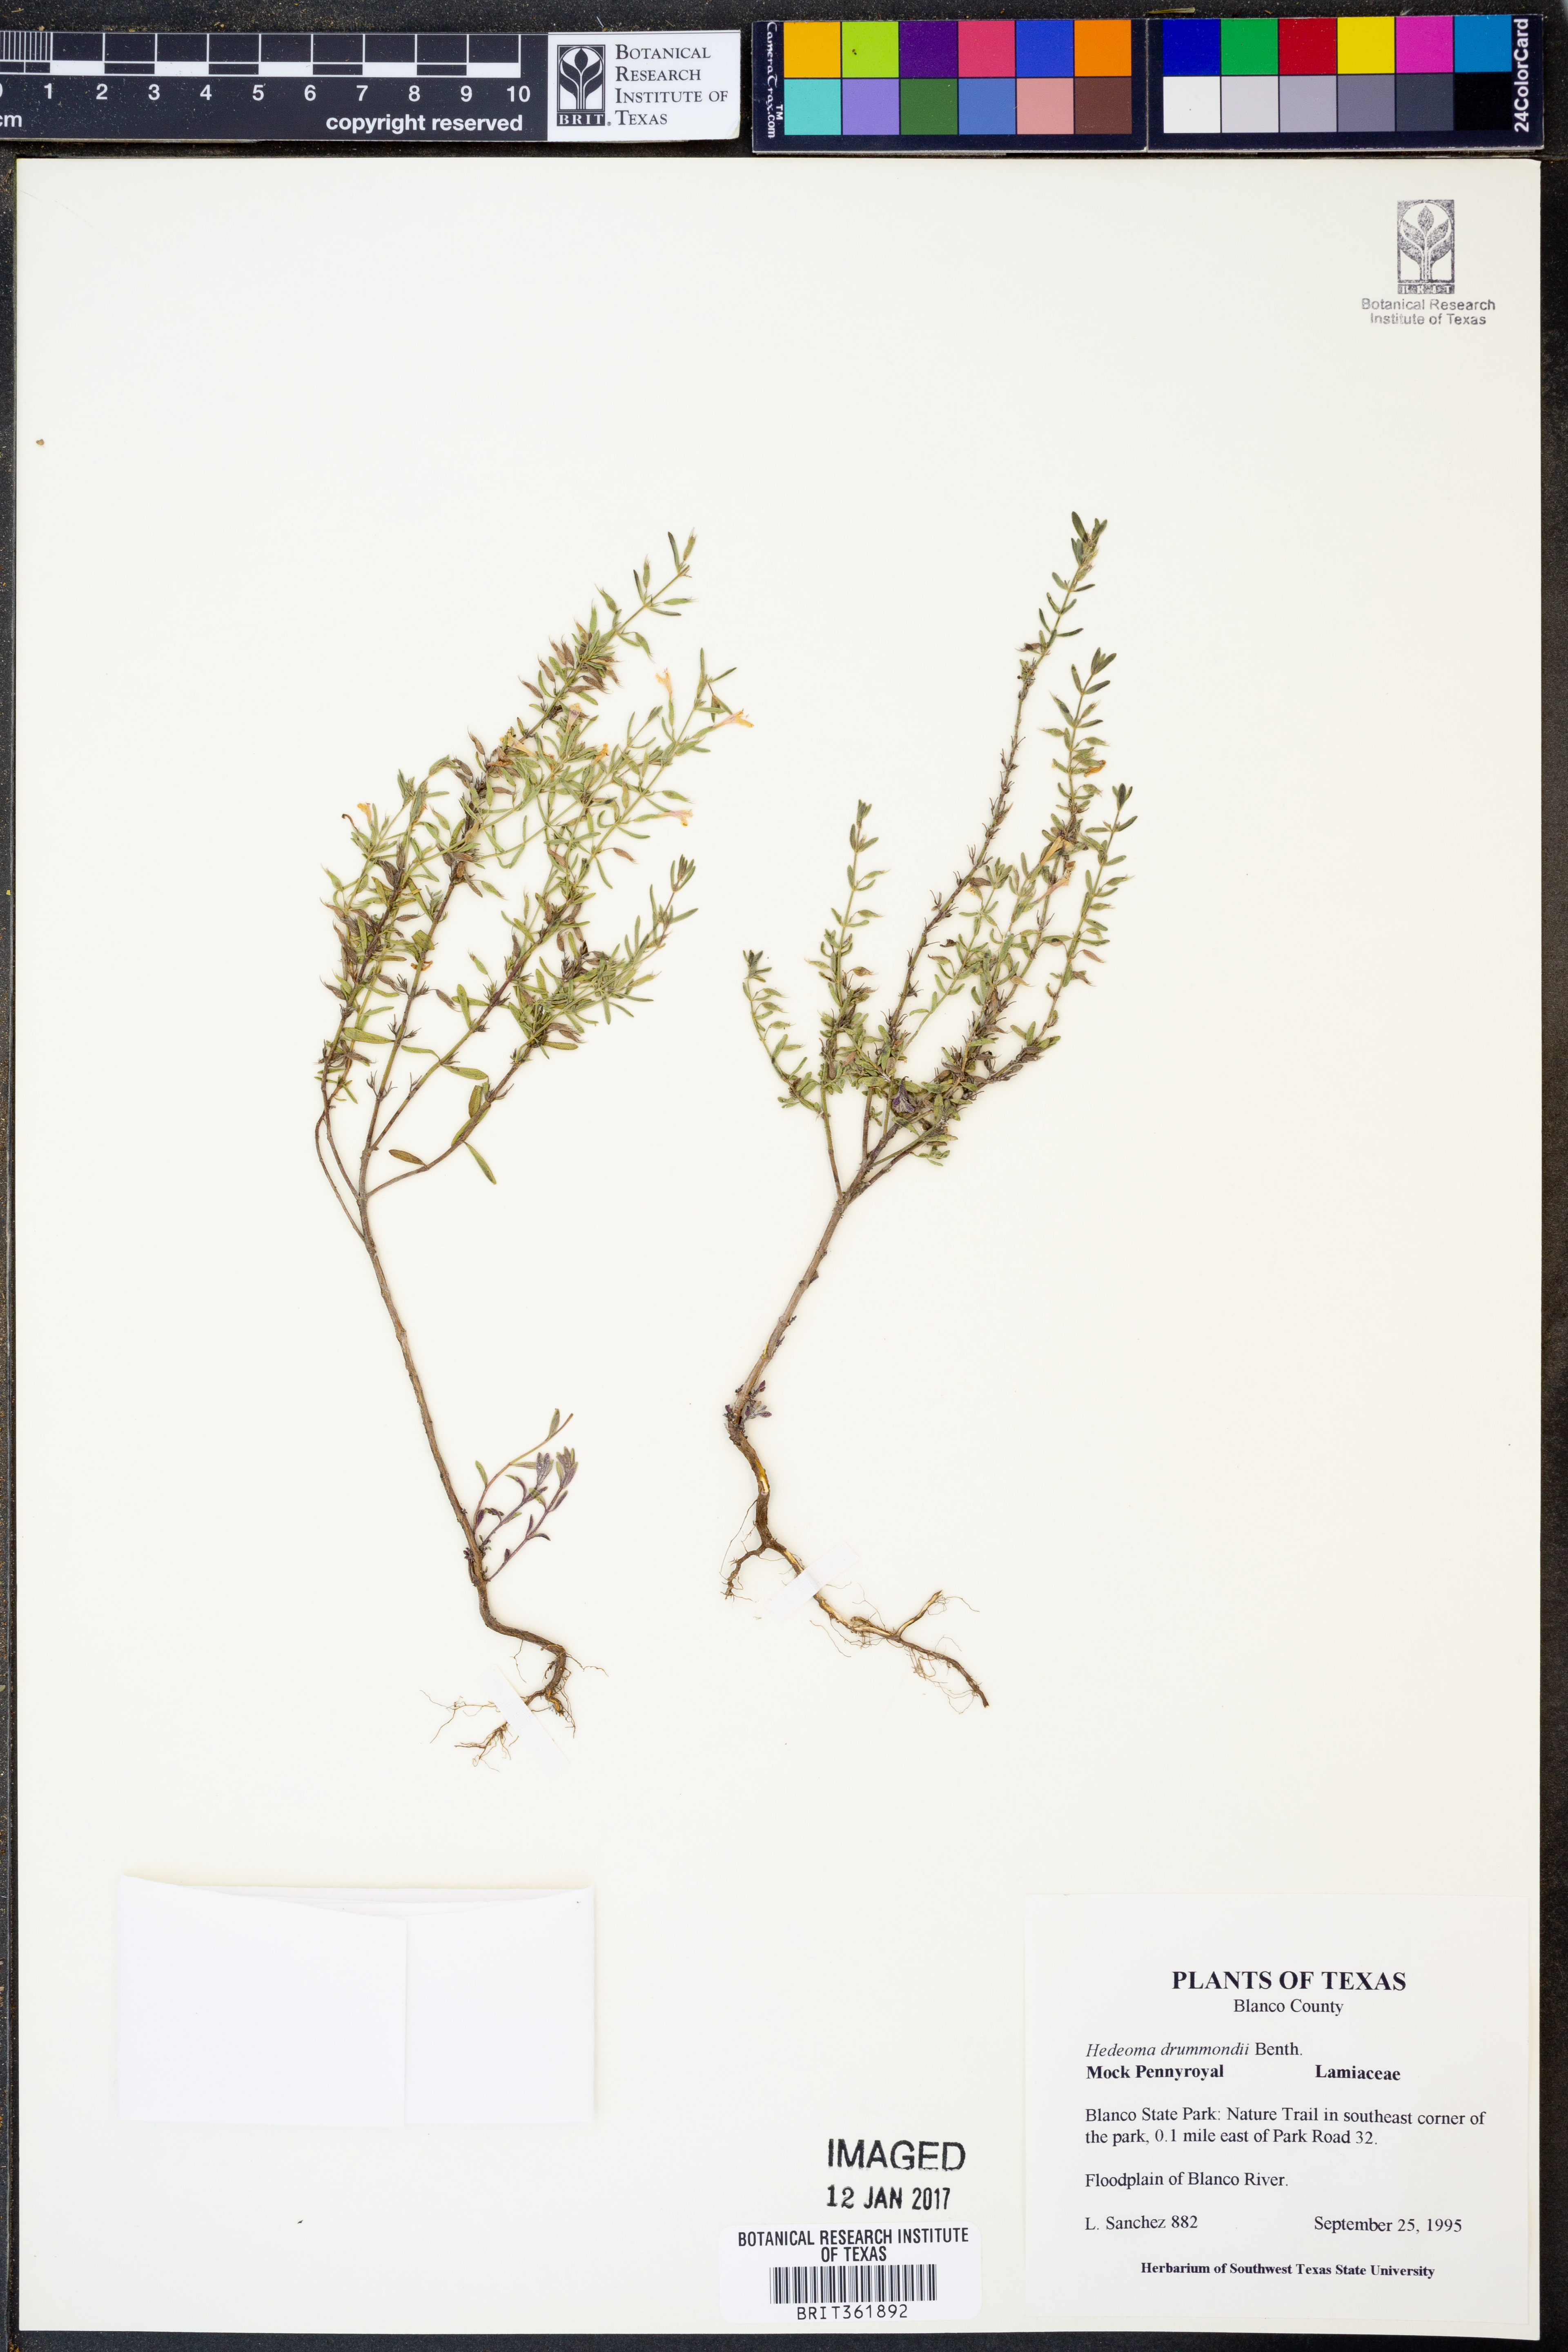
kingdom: Plantae
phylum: Tracheophyta
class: Magnoliopsida
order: Lamiales
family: Lamiaceae
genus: Hedeoma
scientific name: Hedeoma drummondii
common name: New mexico pennyroyal
